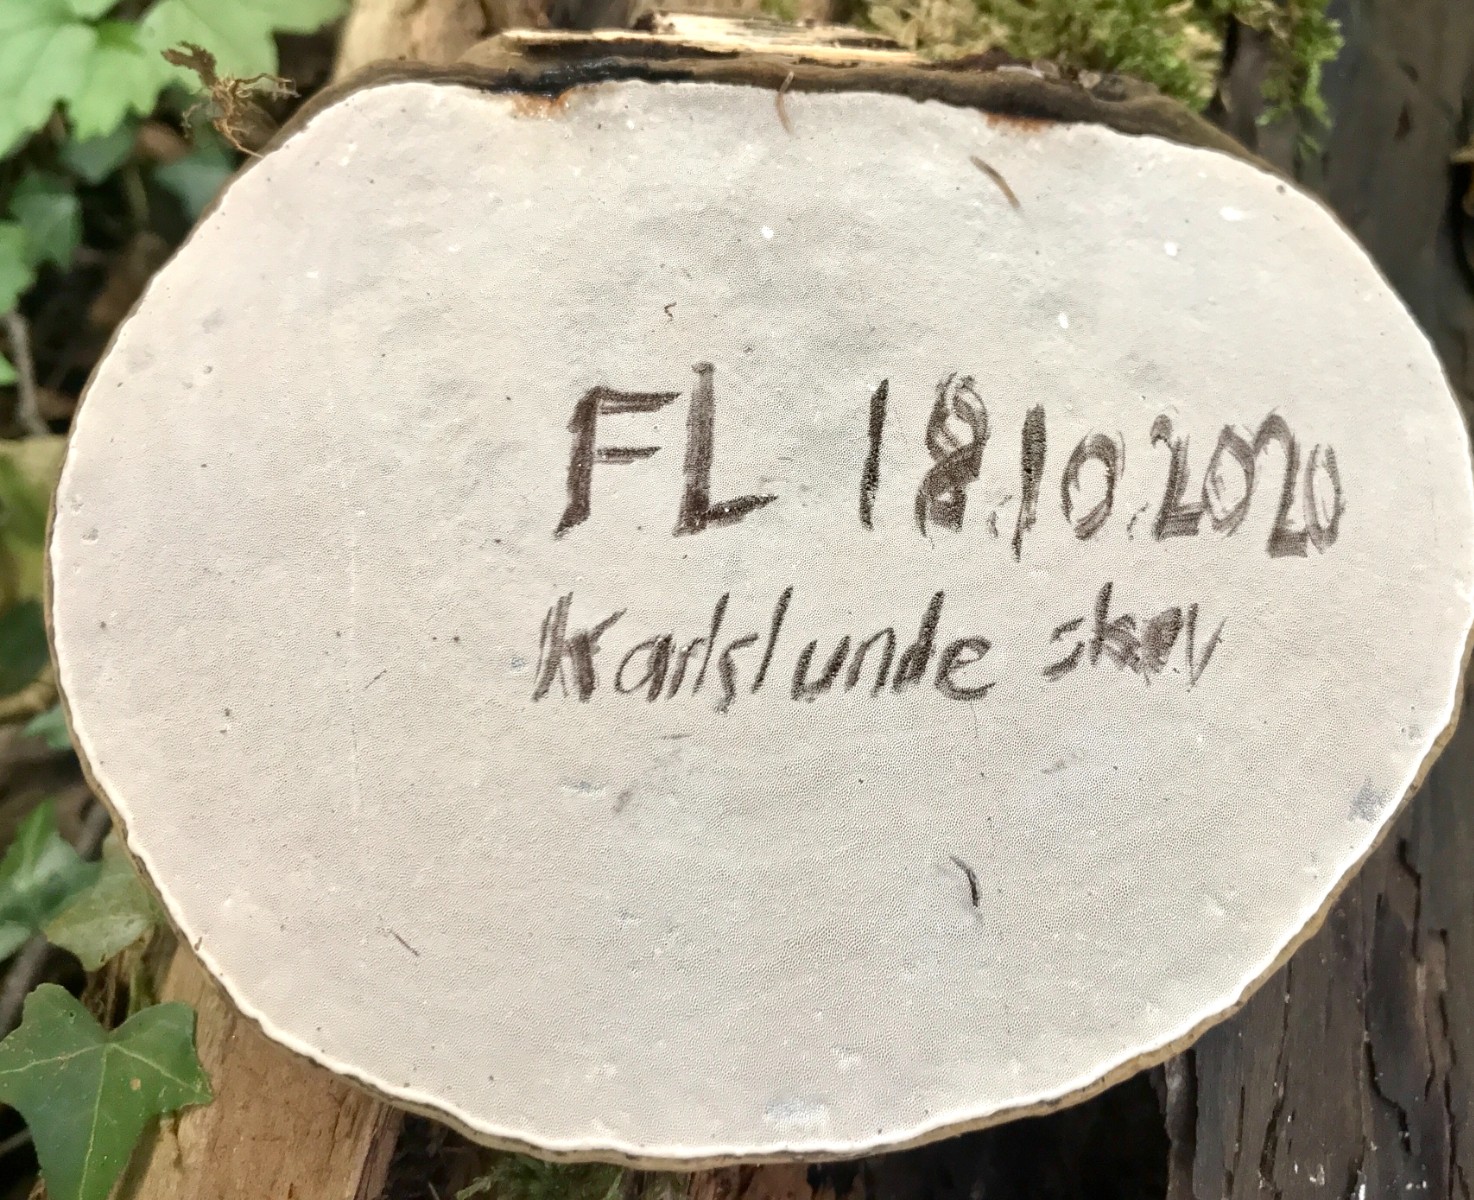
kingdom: Fungi
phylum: Basidiomycota
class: Agaricomycetes
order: Polyporales
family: Polyporaceae
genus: Ganoderma
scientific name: Ganoderma applanatum
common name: flad lakporesvamp
